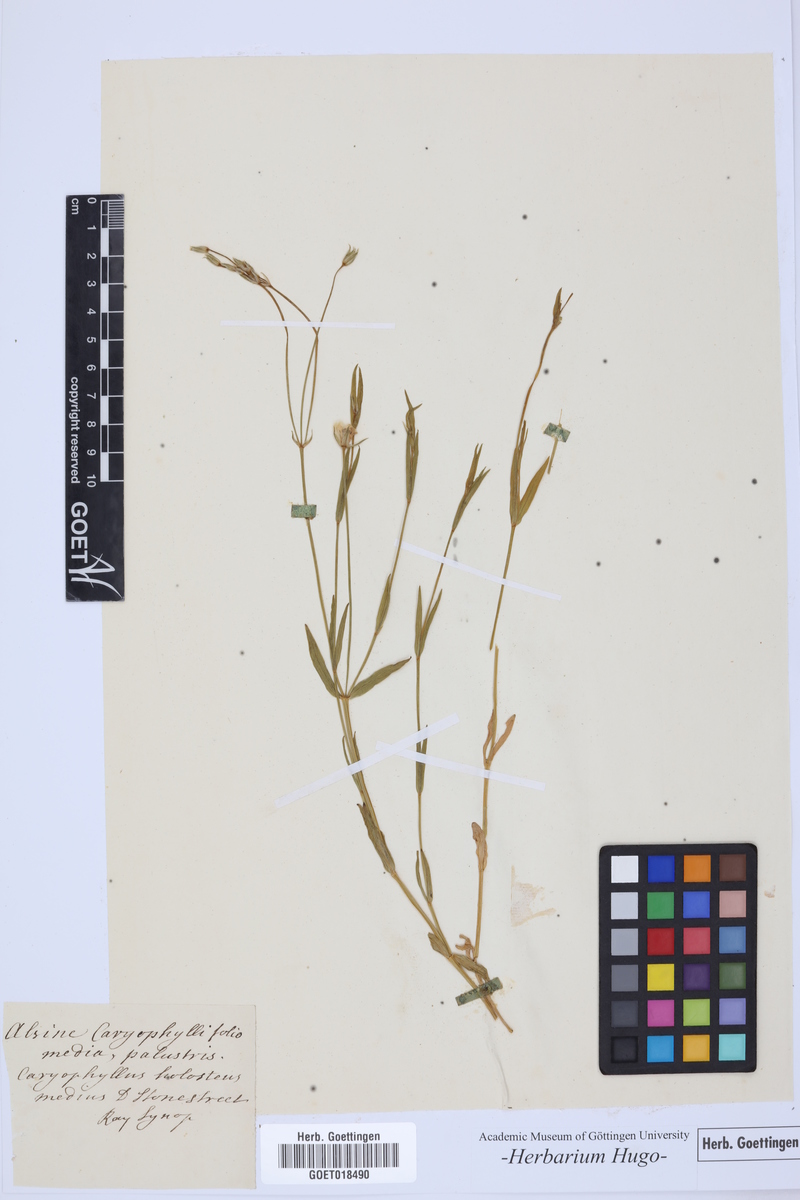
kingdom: Plantae
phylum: Tracheophyta
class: Magnoliopsida
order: Caryophyllales
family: Caryophyllaceae
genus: Rabelera
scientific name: Rabelera holostea
